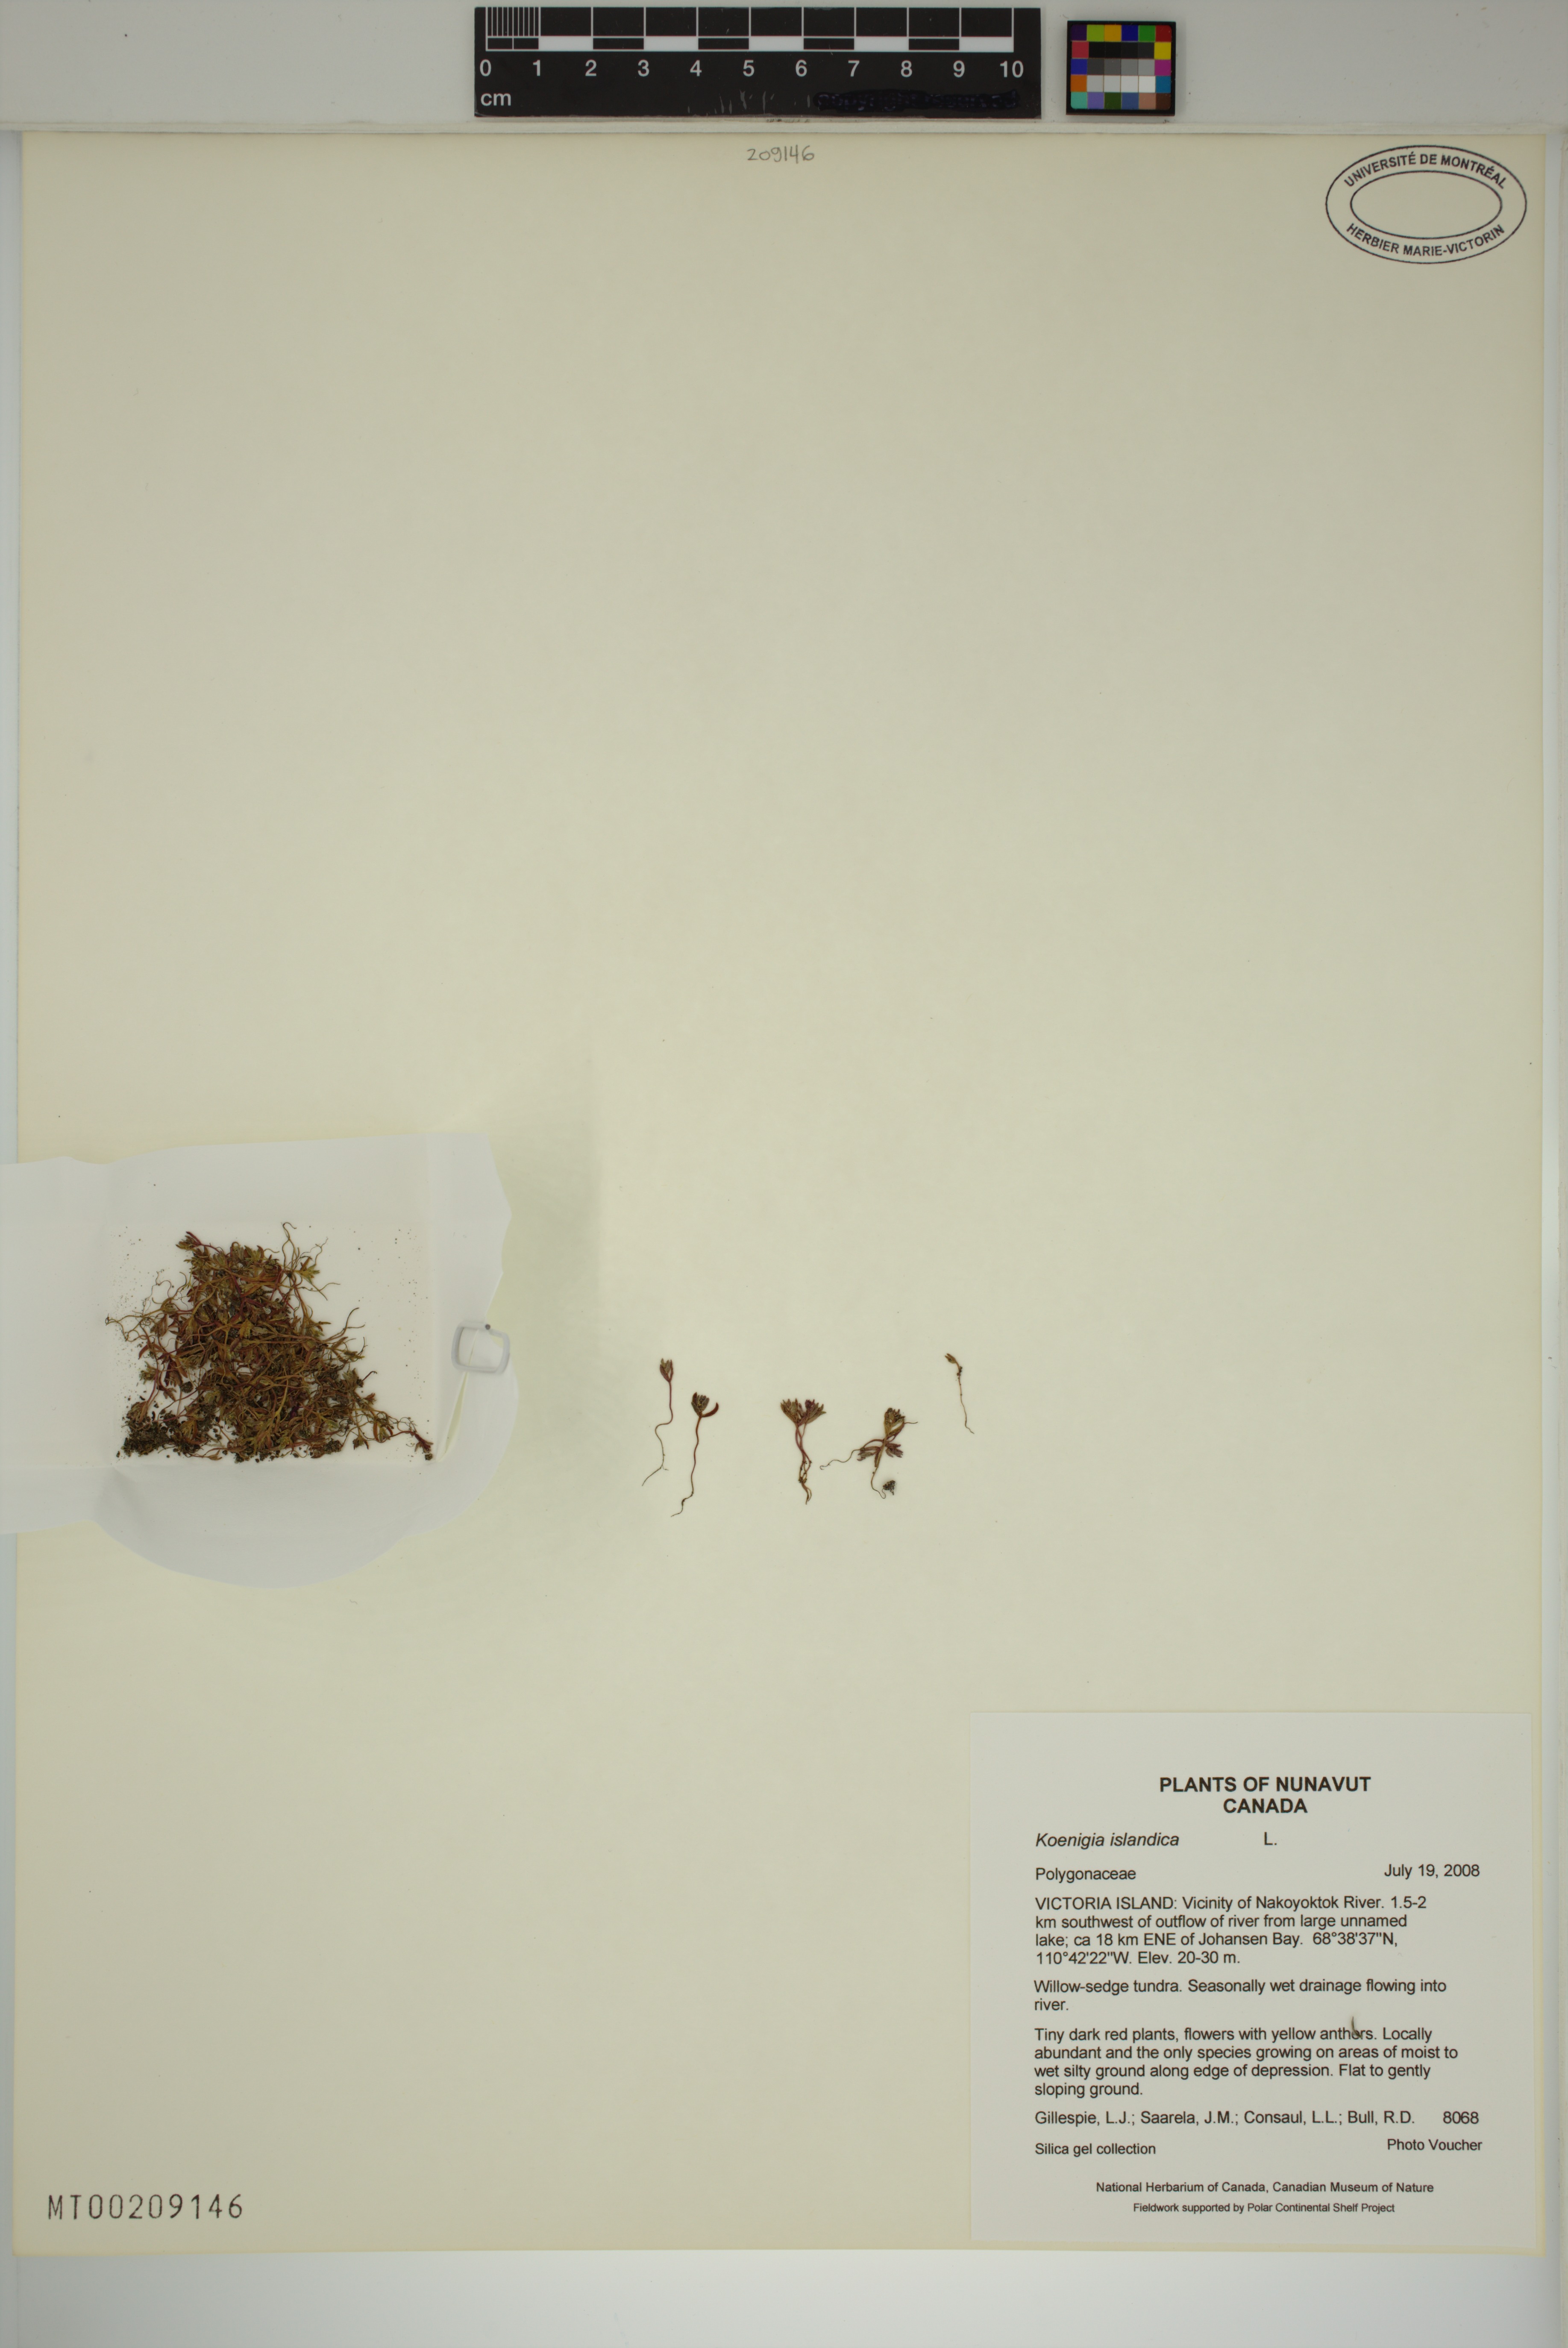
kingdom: Plantae
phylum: Tracheophyta
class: Magnoliopsida
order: Caryophyllales
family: Polygonaceae
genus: Koenigia
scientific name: Koenigia islandica
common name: Iceland-purslane
